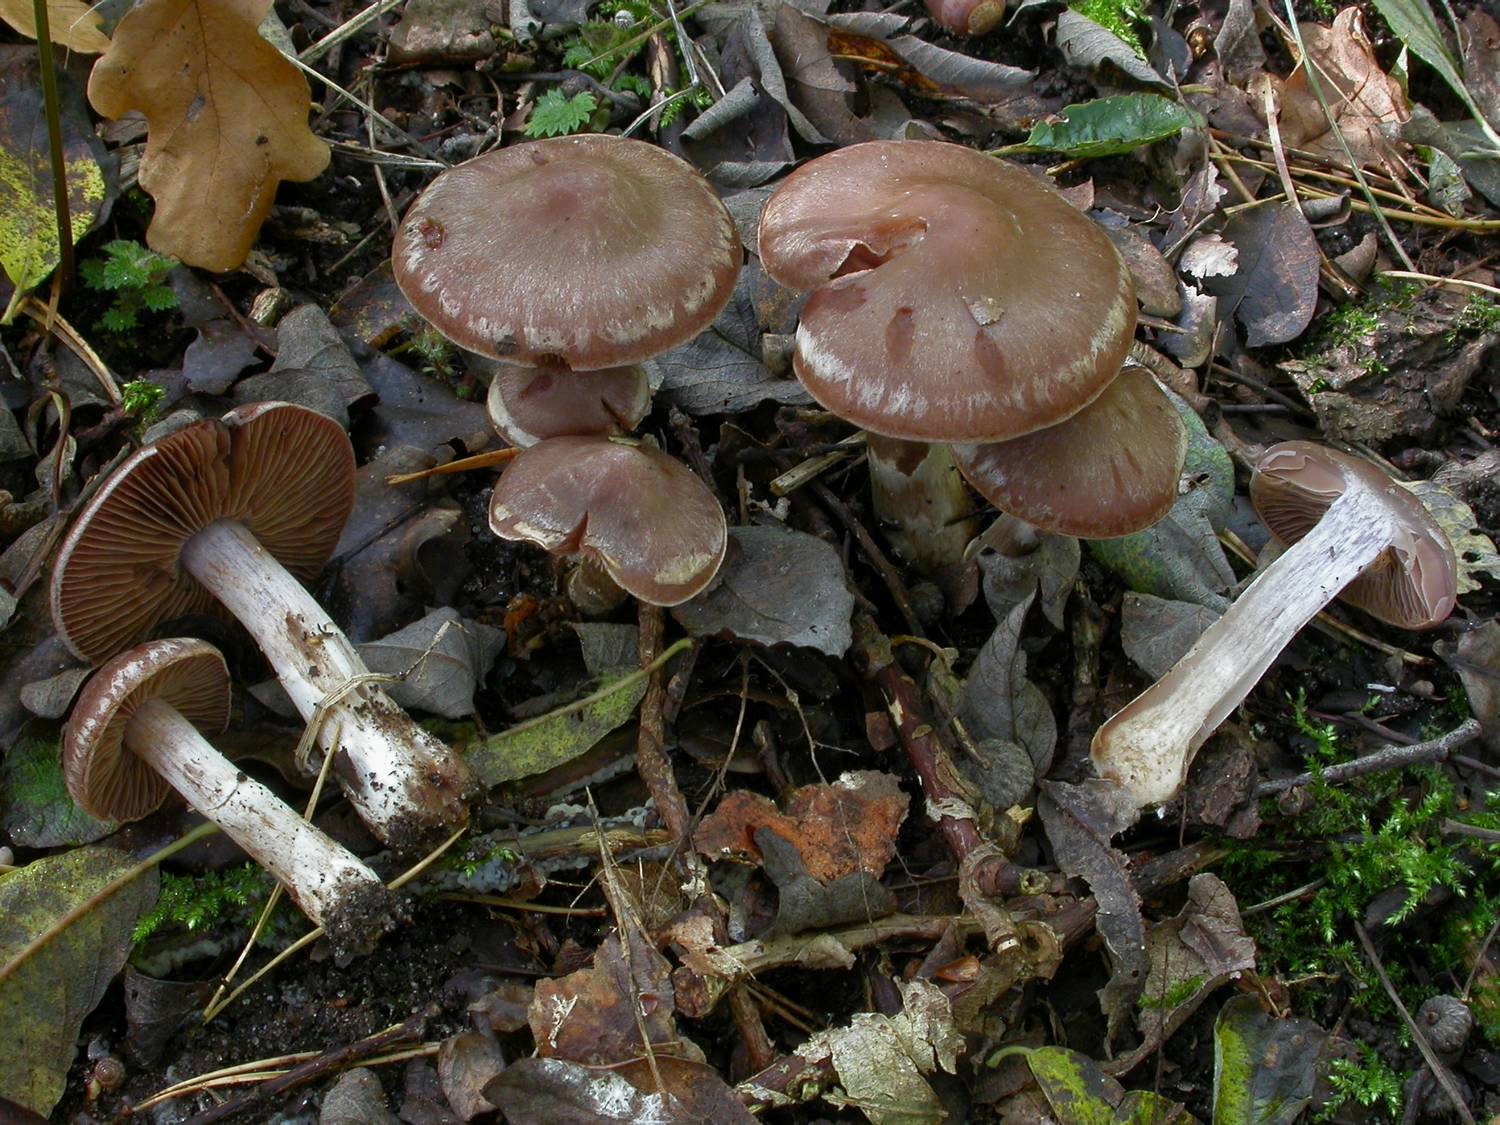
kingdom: Fungi
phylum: Basidiomycota
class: Agaricomycetes
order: Agaricales
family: Cortinariaceae
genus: Cortinarius
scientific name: Cortinarius saturninus
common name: brunviolet slørhat
